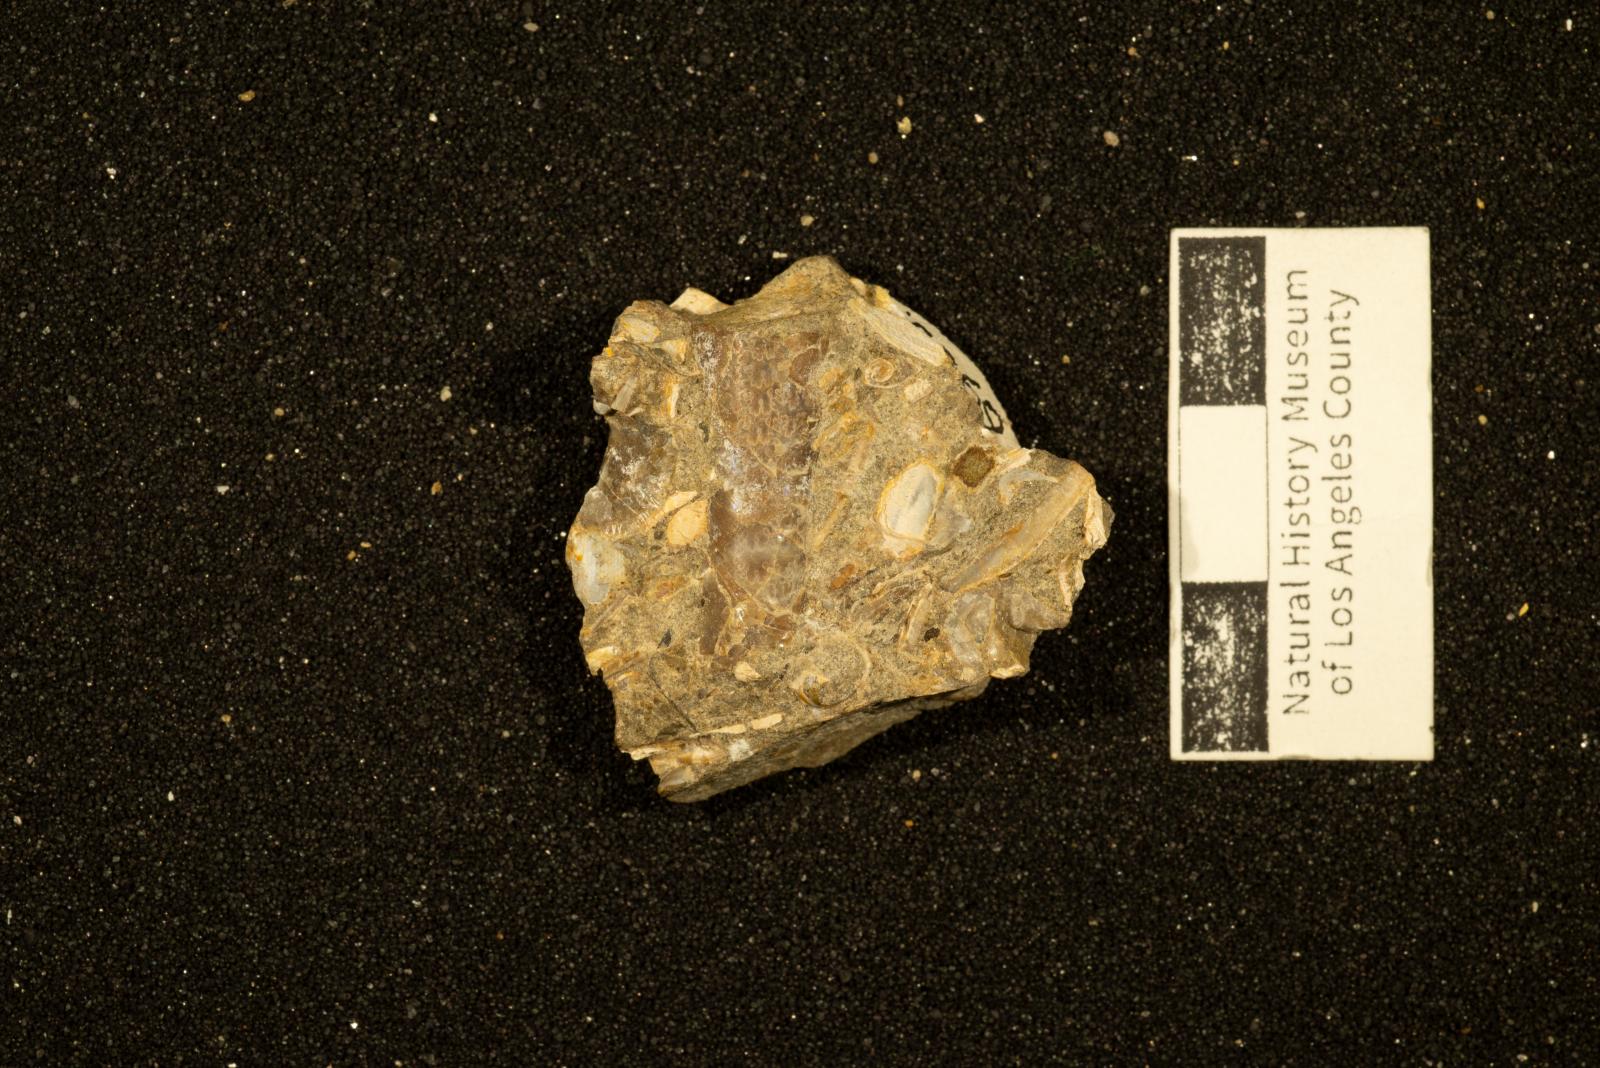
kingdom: Animalia
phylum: Mollusca
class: Cephalopoda
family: Baculitidae
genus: Baculites
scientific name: Baculites
